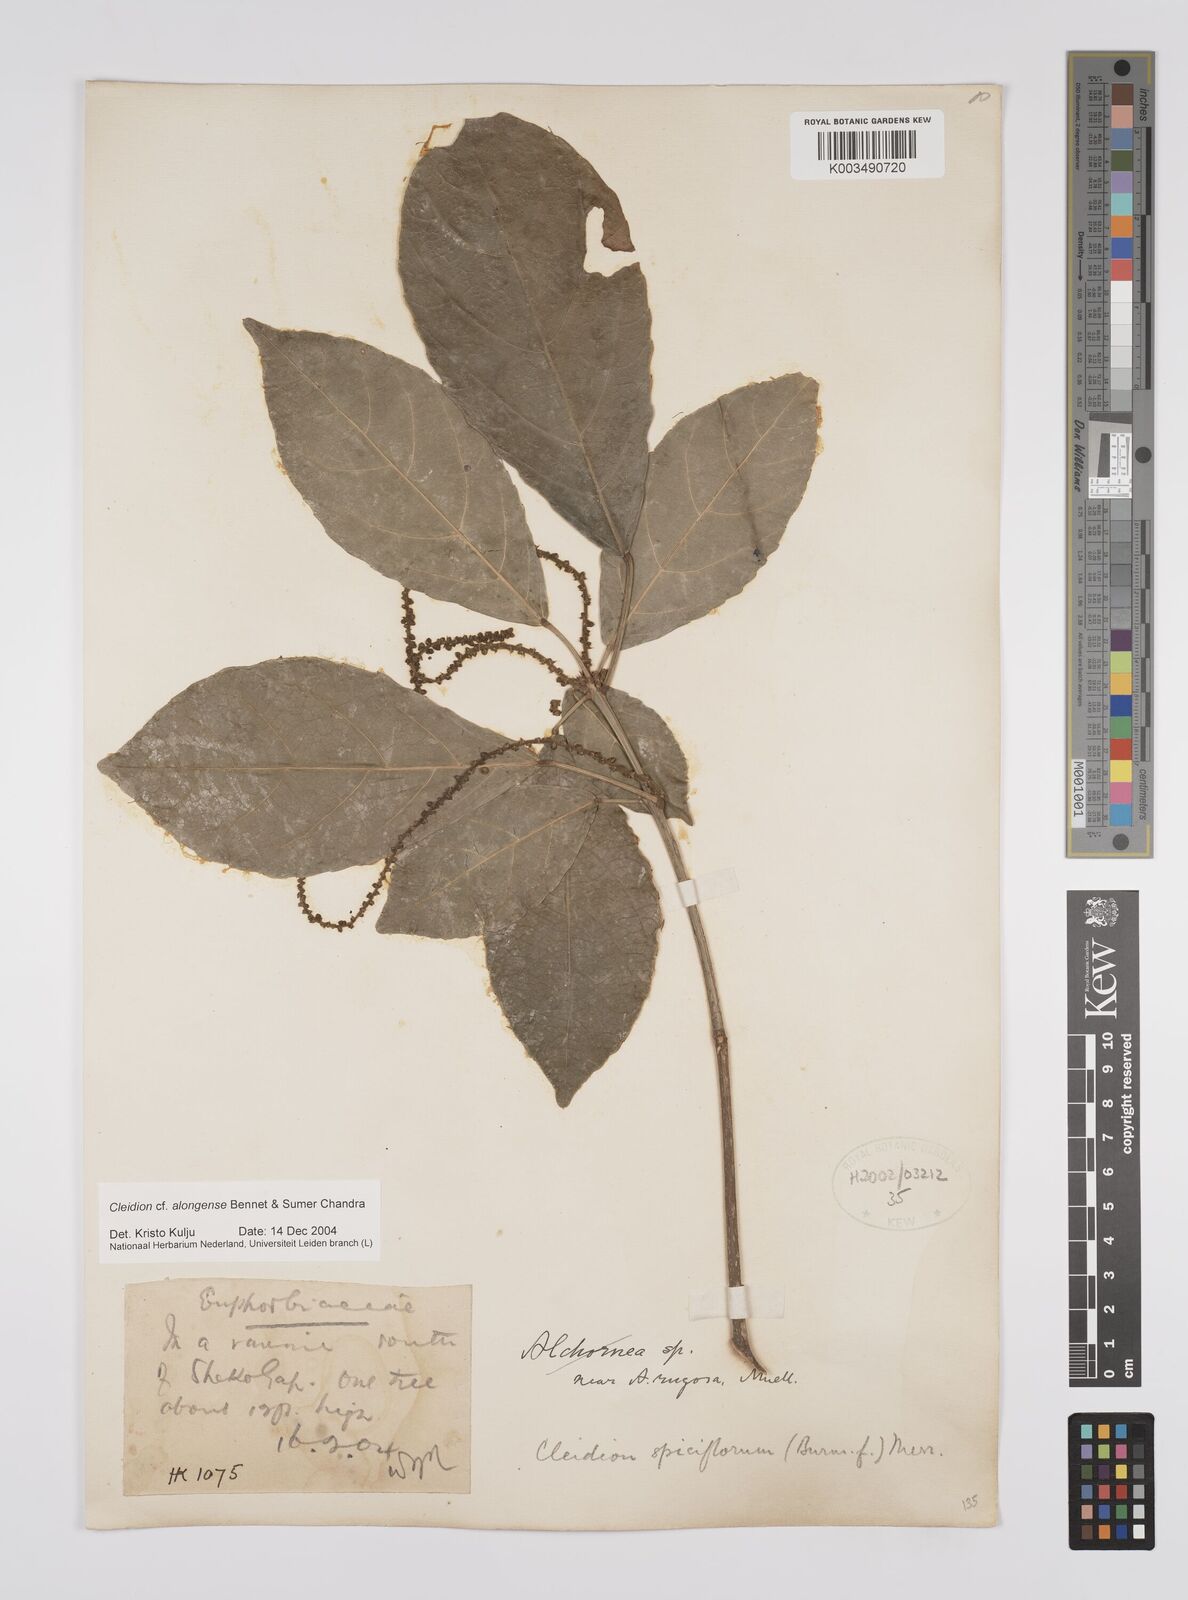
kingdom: Plantae
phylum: Tracheophyta
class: Magnoliopsida
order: Malpighiales
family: Euphorbiaceae
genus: Cleidion
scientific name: Cleidion javanicum
